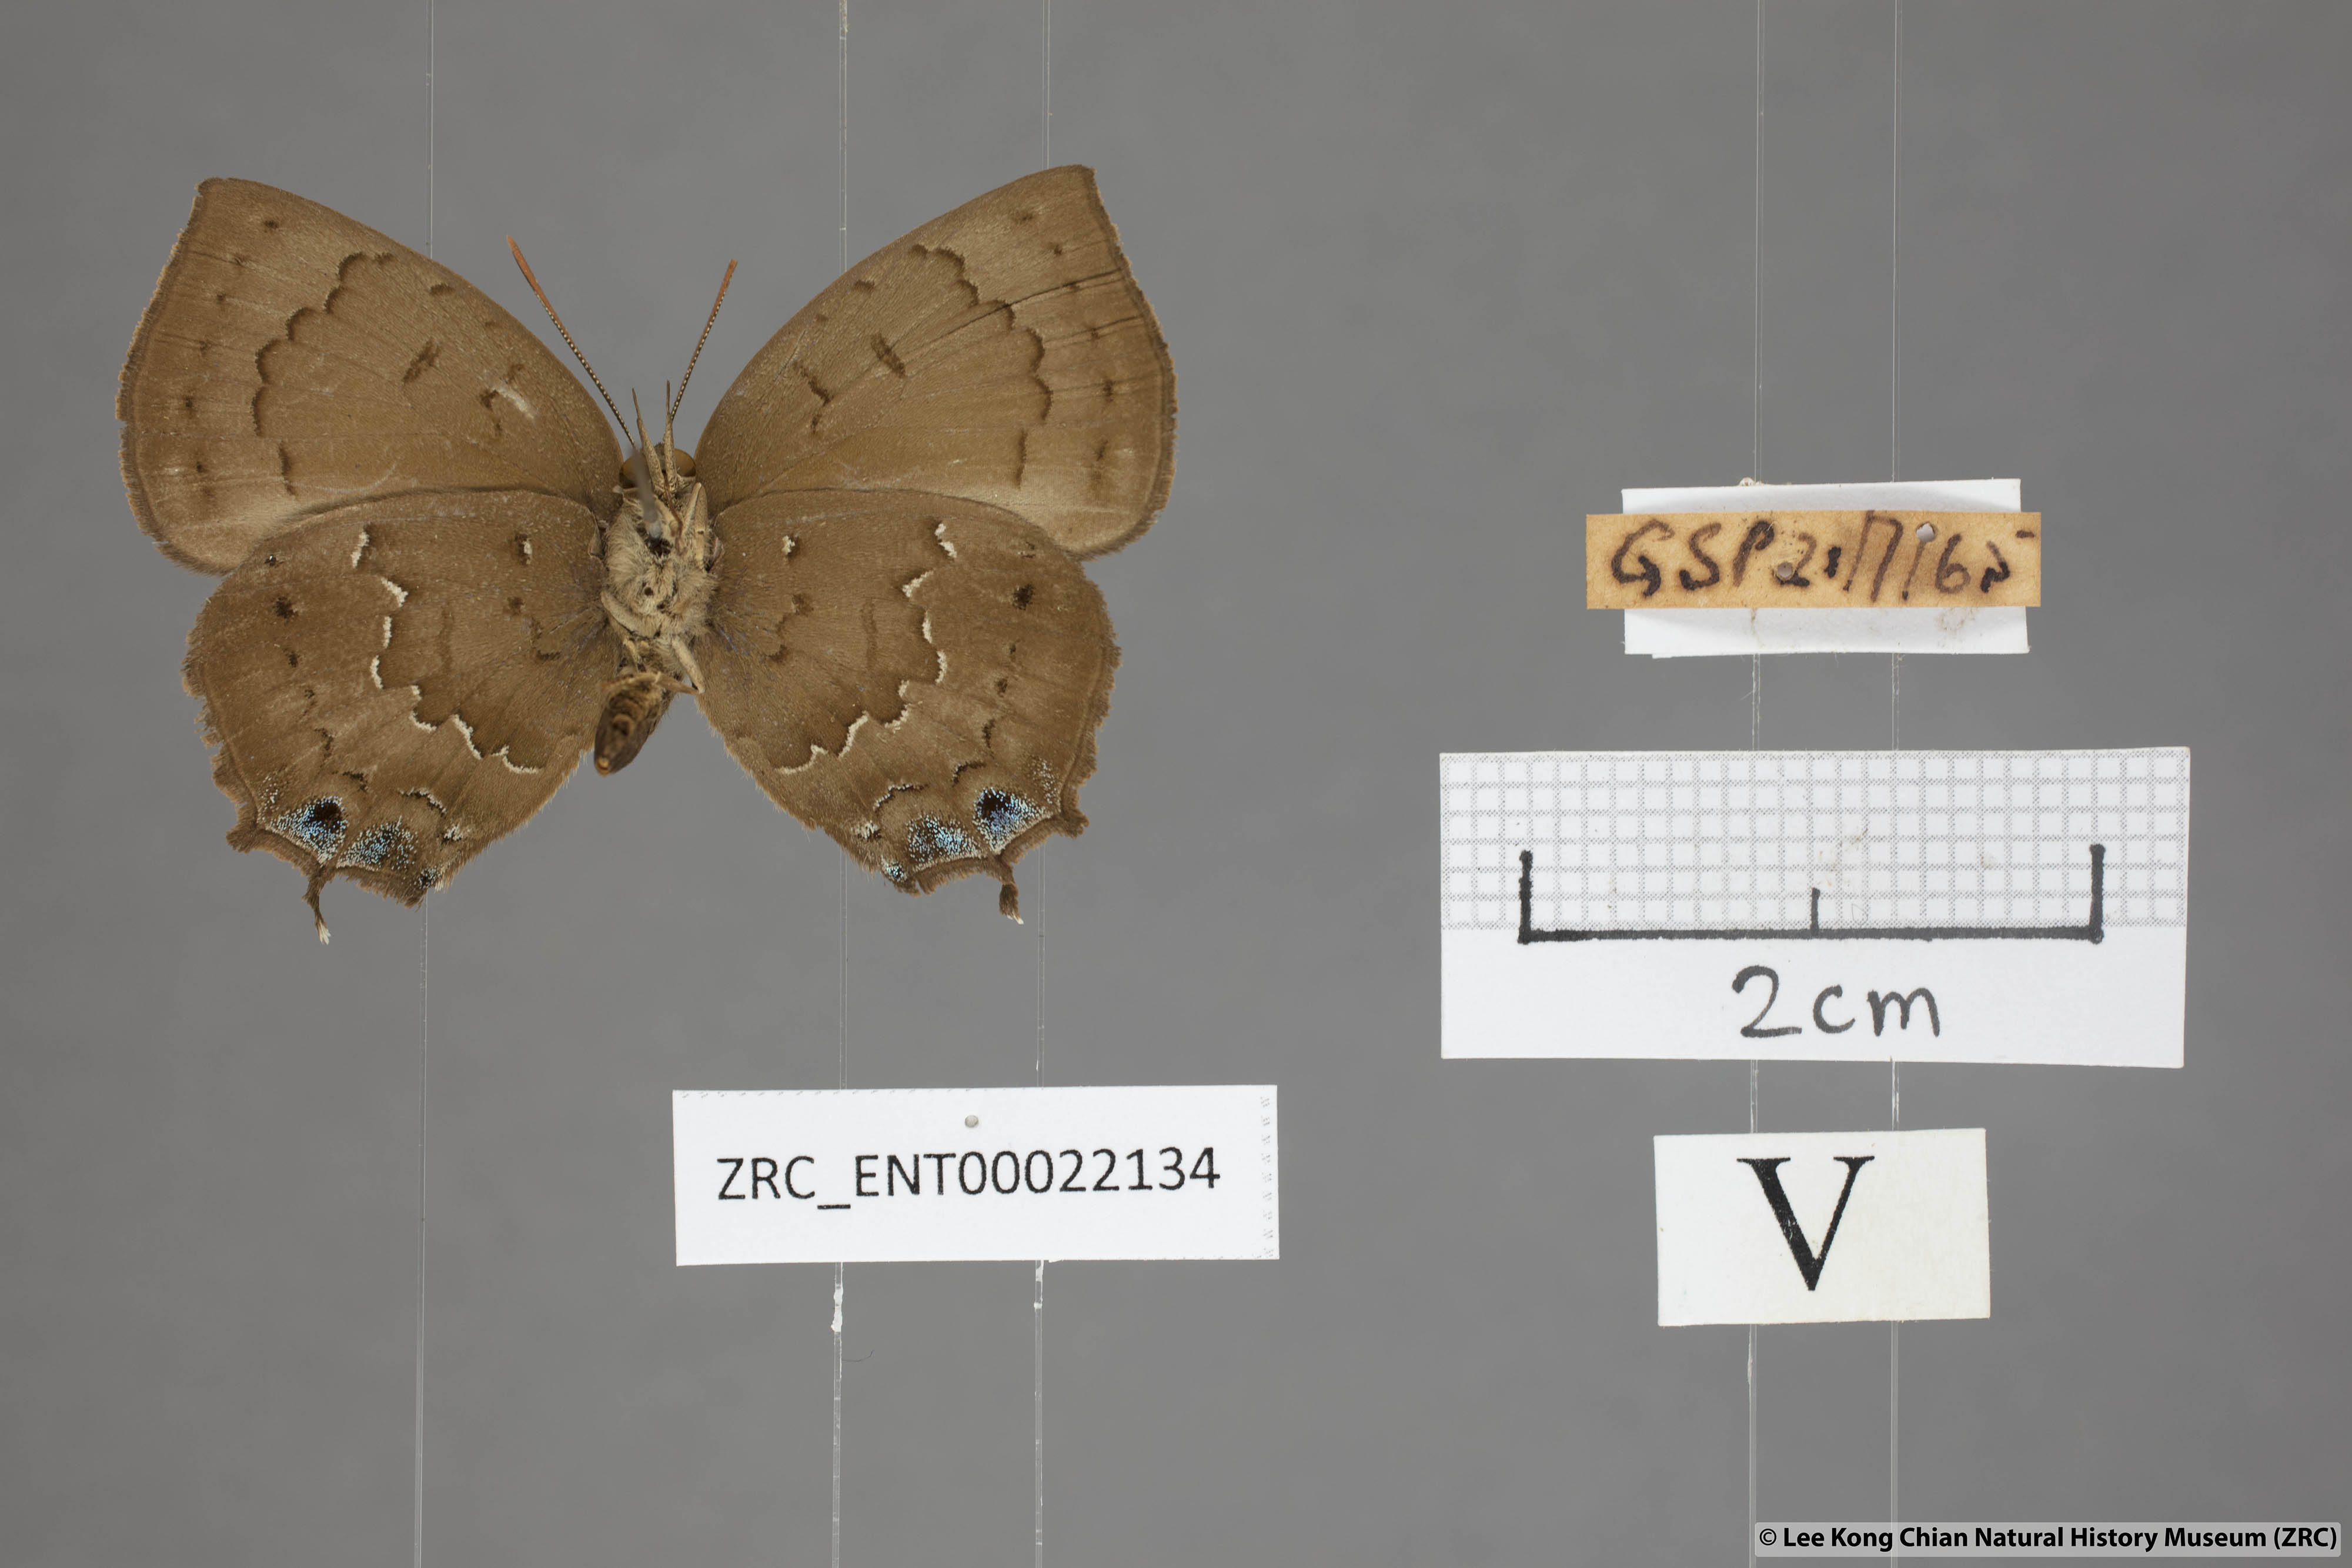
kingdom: Animalia
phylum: Arthropoda
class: Insecta
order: Lepidoptera
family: Lycaenidae
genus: Surendra
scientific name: Surendra vivarna
